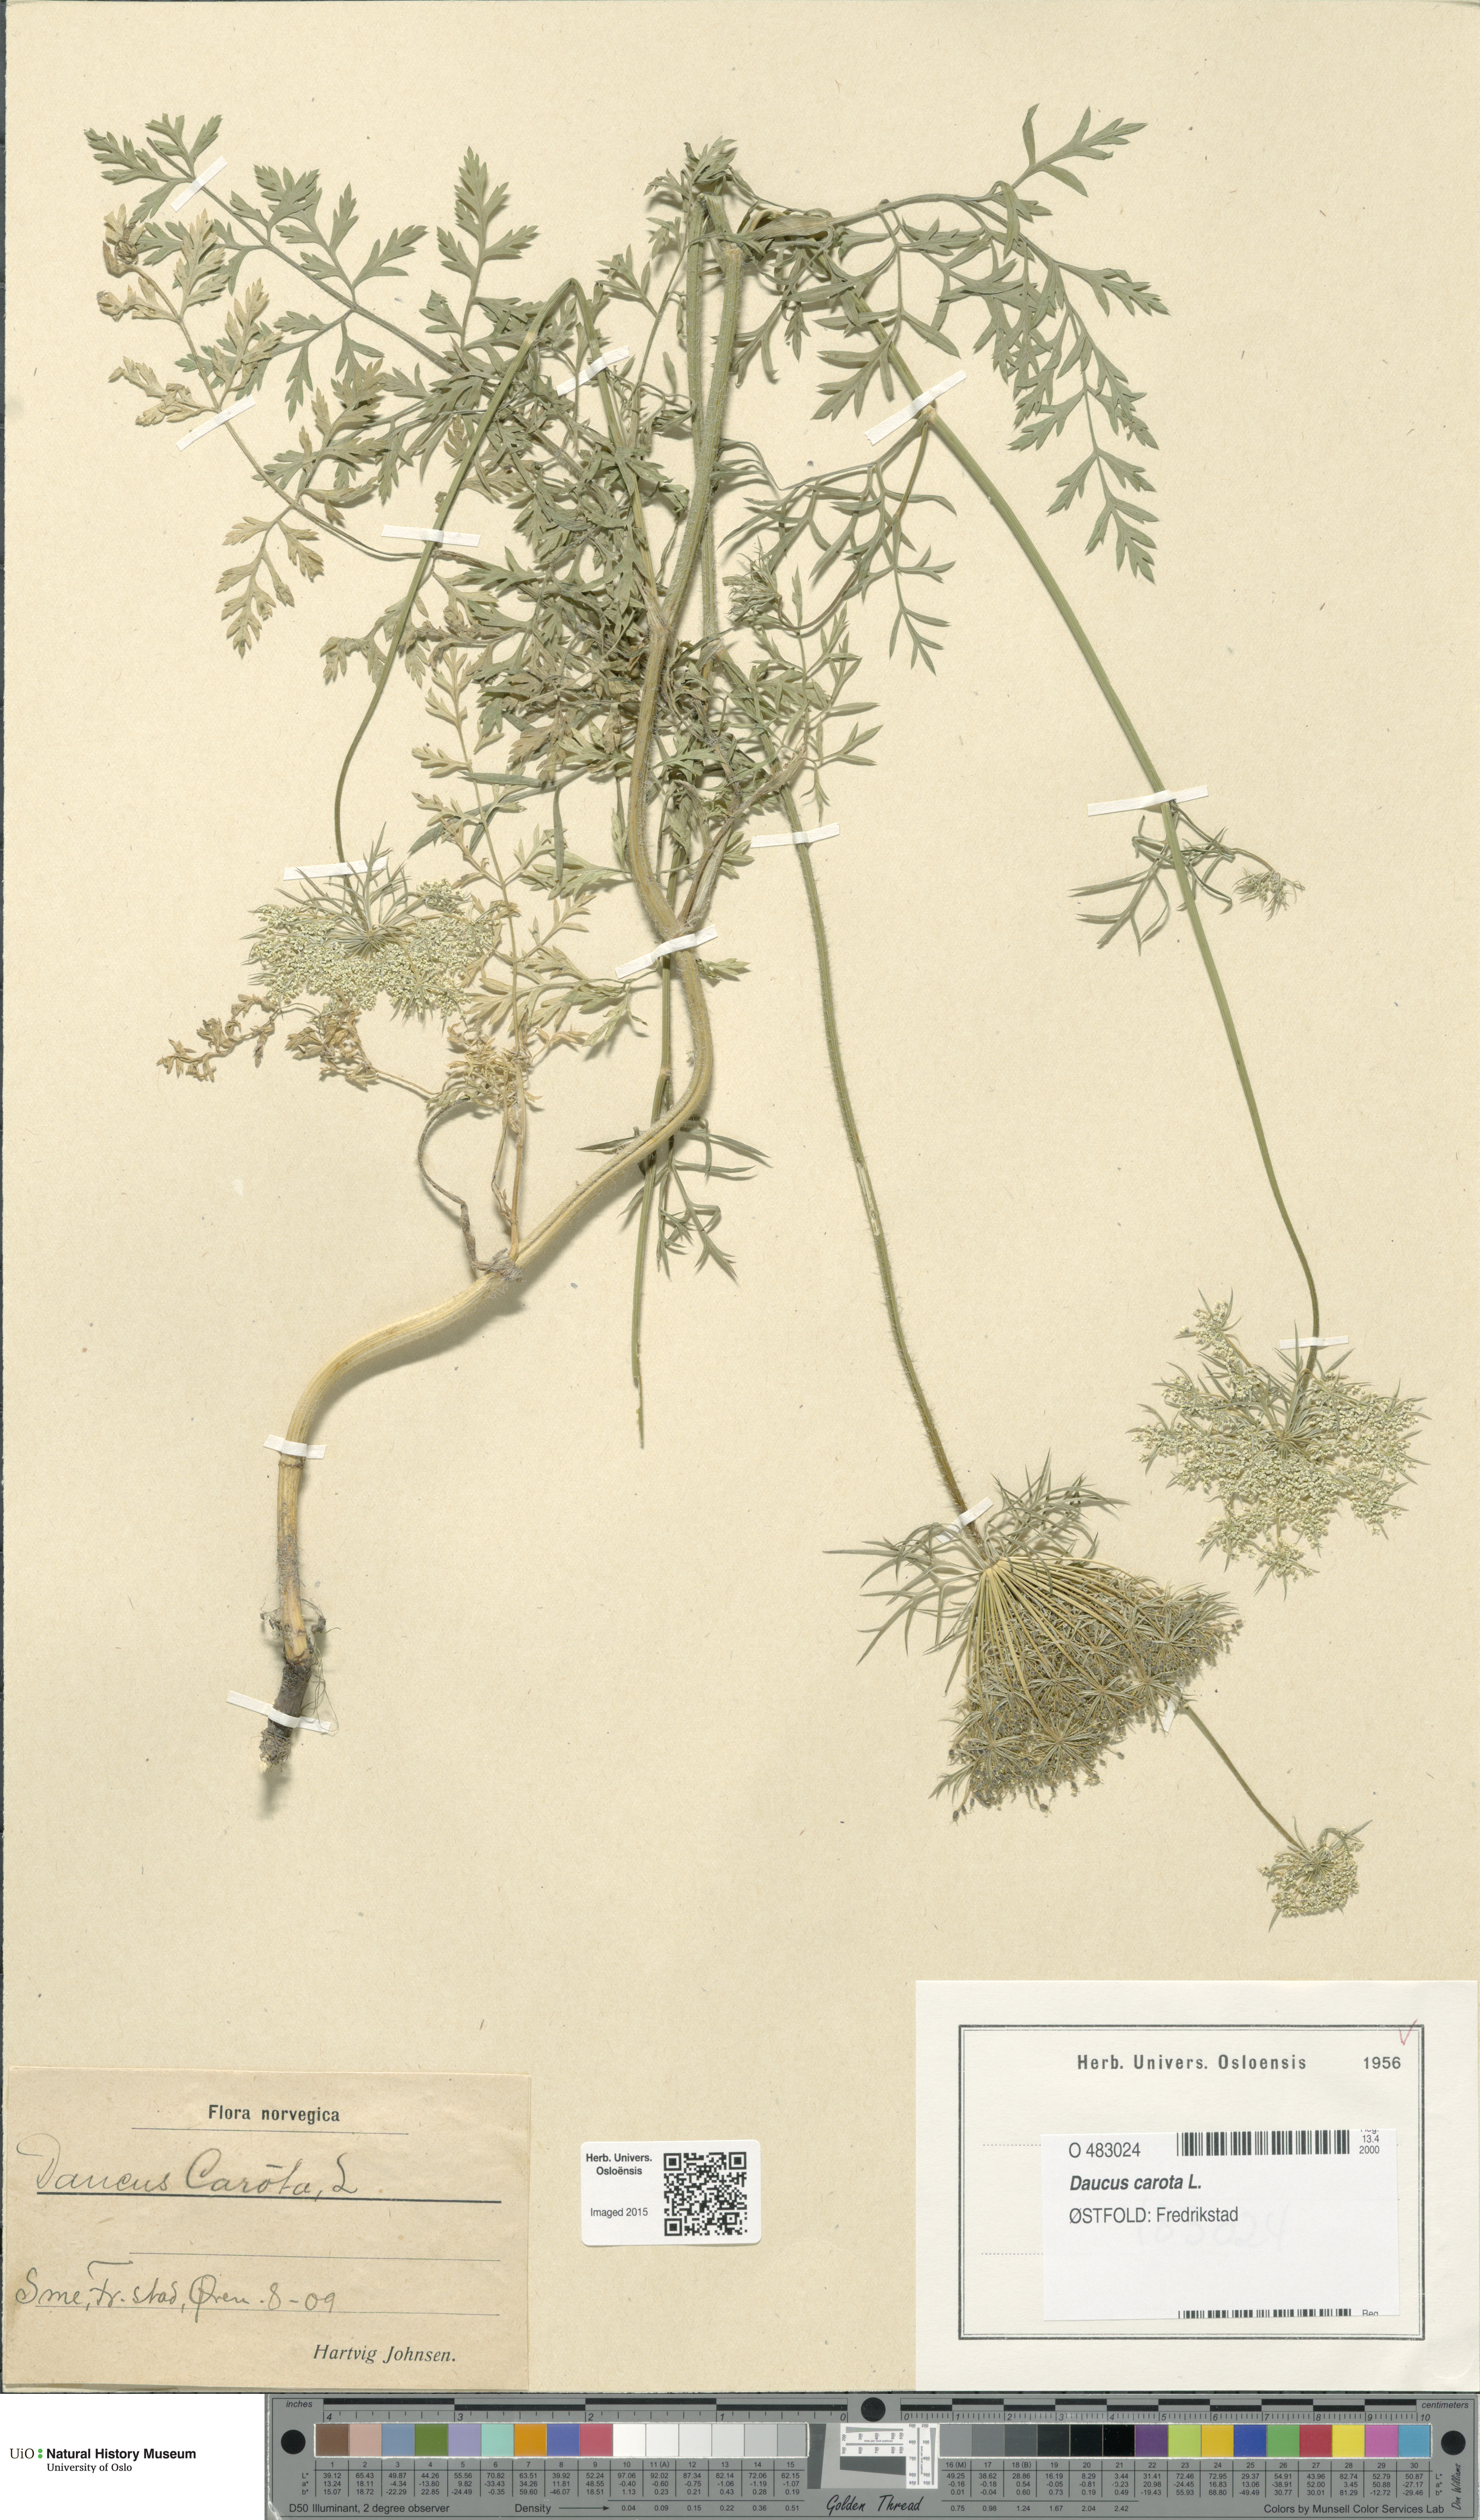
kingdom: Plantae
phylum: Tracheophyta
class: Magnoliopsida
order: Apiales
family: Apiaceae
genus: Daucus
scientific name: Daucus carota
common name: Wild carrot
